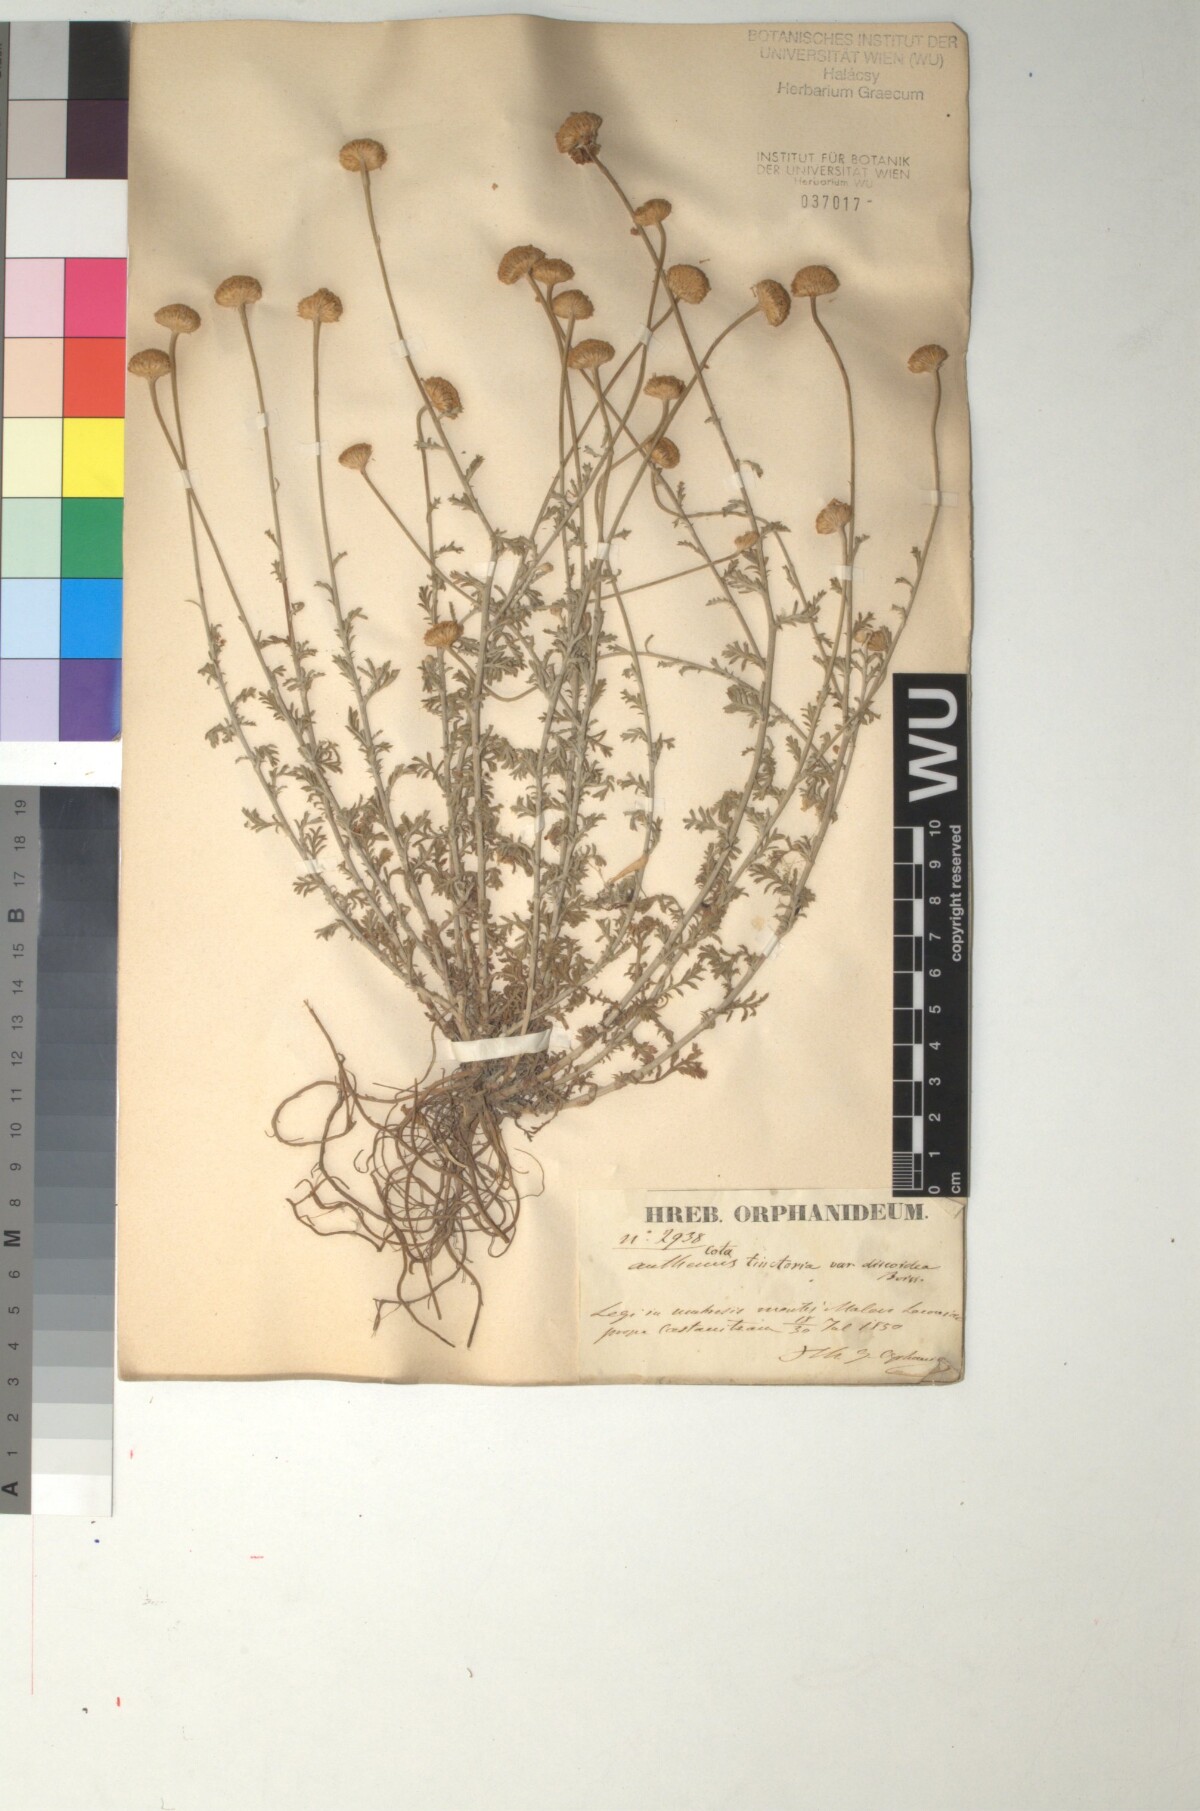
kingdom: Plantae
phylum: Tracheophyta
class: Magnoliopsida
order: Asterales
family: Asteraceae
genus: Cota
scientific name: Cota tinctoria
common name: Golden chamomile
